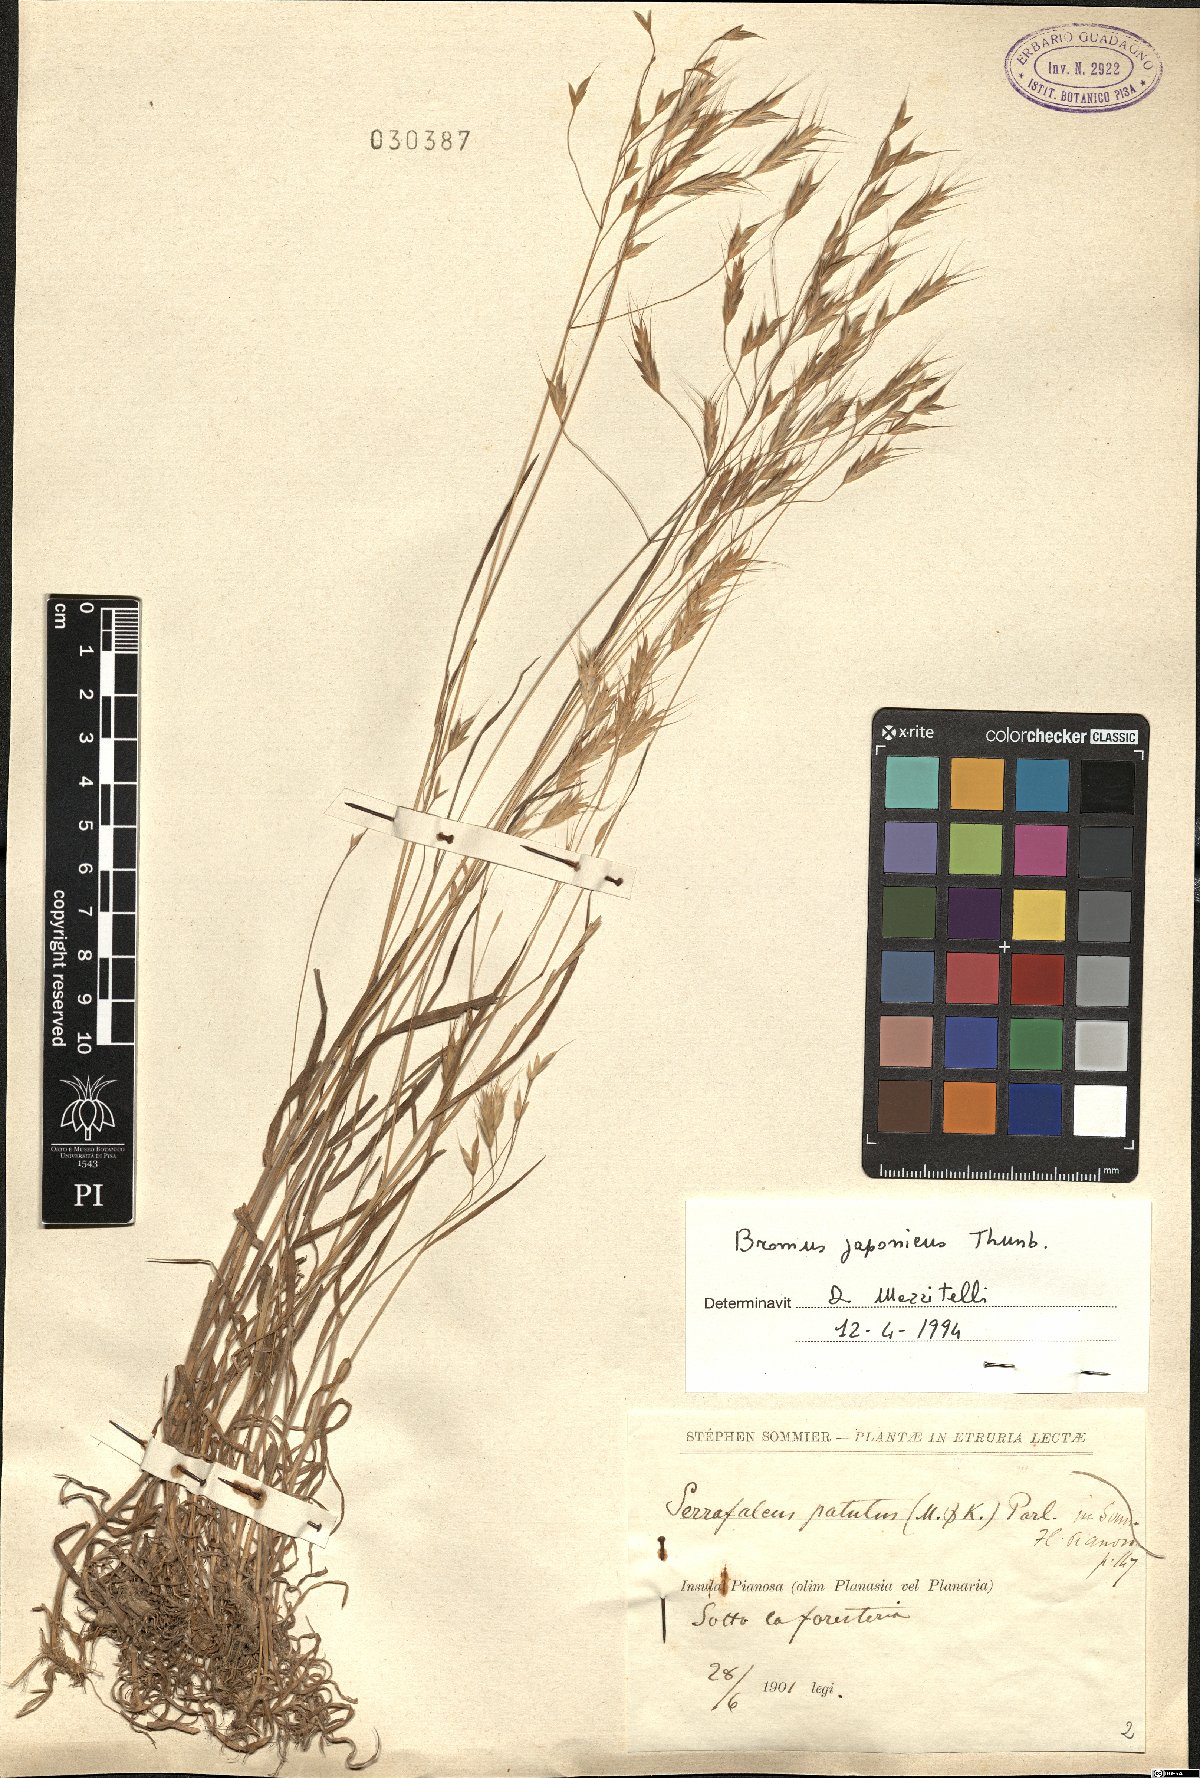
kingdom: Plantae
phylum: Tracheophyta
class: Liliopsida
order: Poales
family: Poaceae
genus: Bromus
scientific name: Bromus japonicus
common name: Japanese brome
